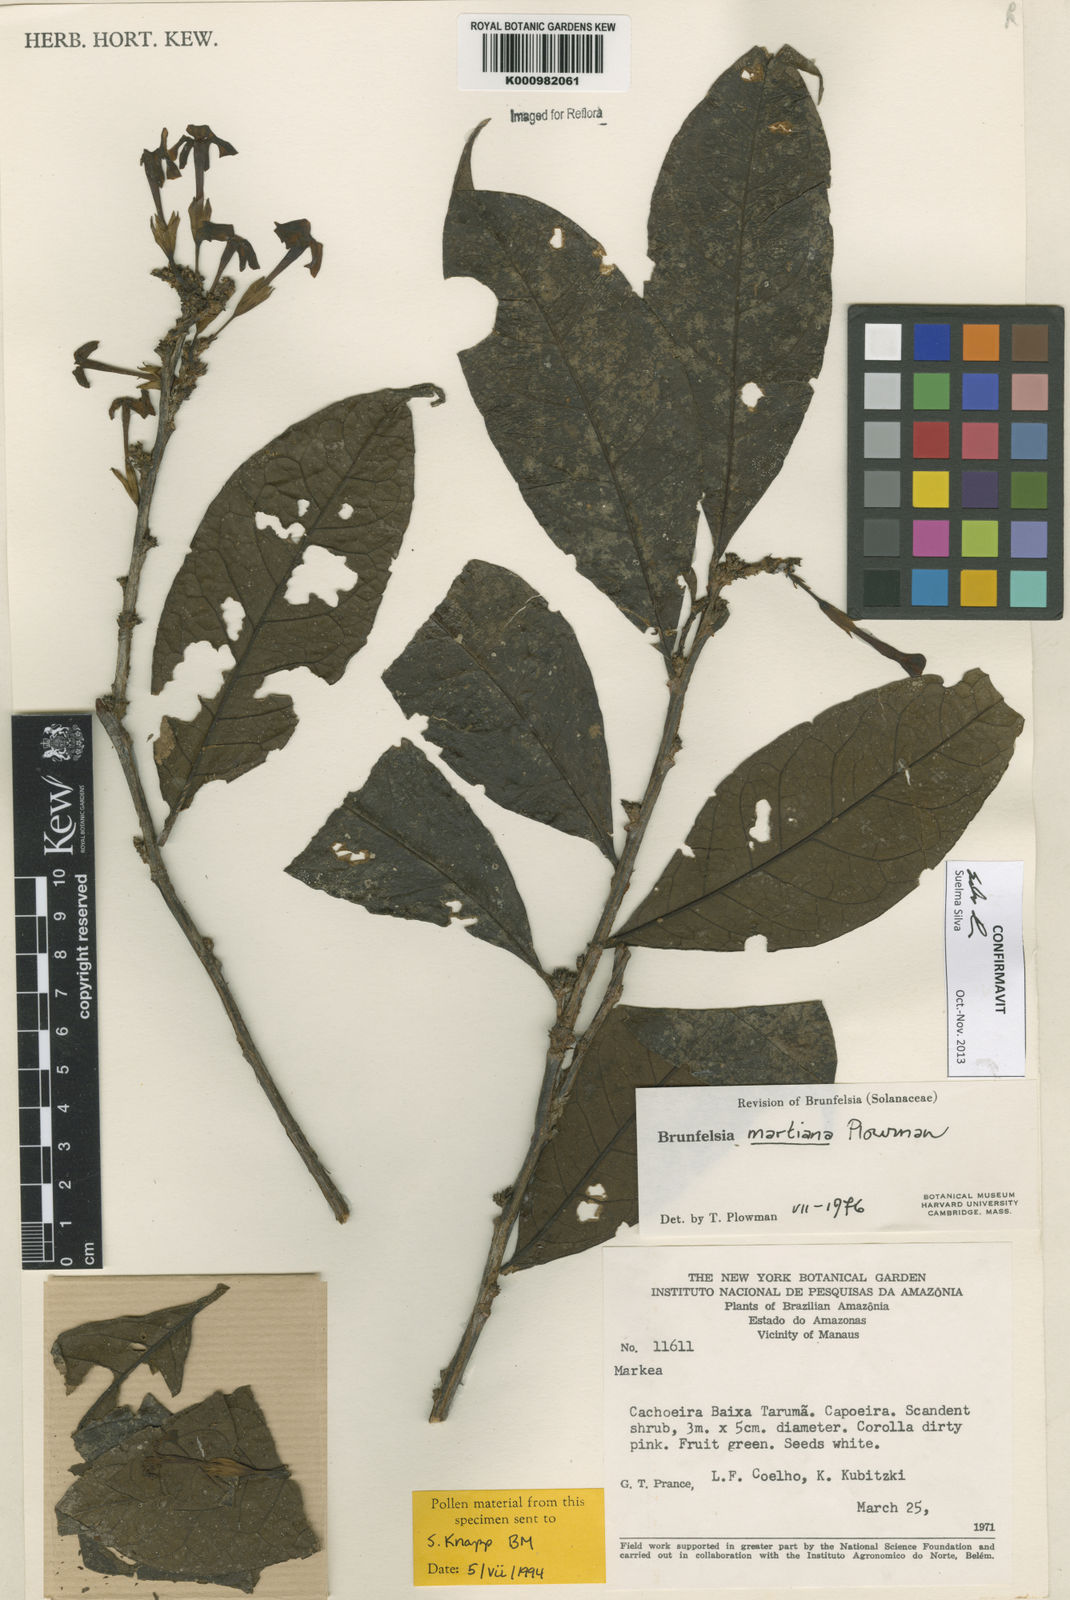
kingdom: Plantae
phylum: Tracheophyta
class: Magnoliopsida
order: Solanales
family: Solanaceae
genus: Brunfelsia
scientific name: Brunfelsia martiana
